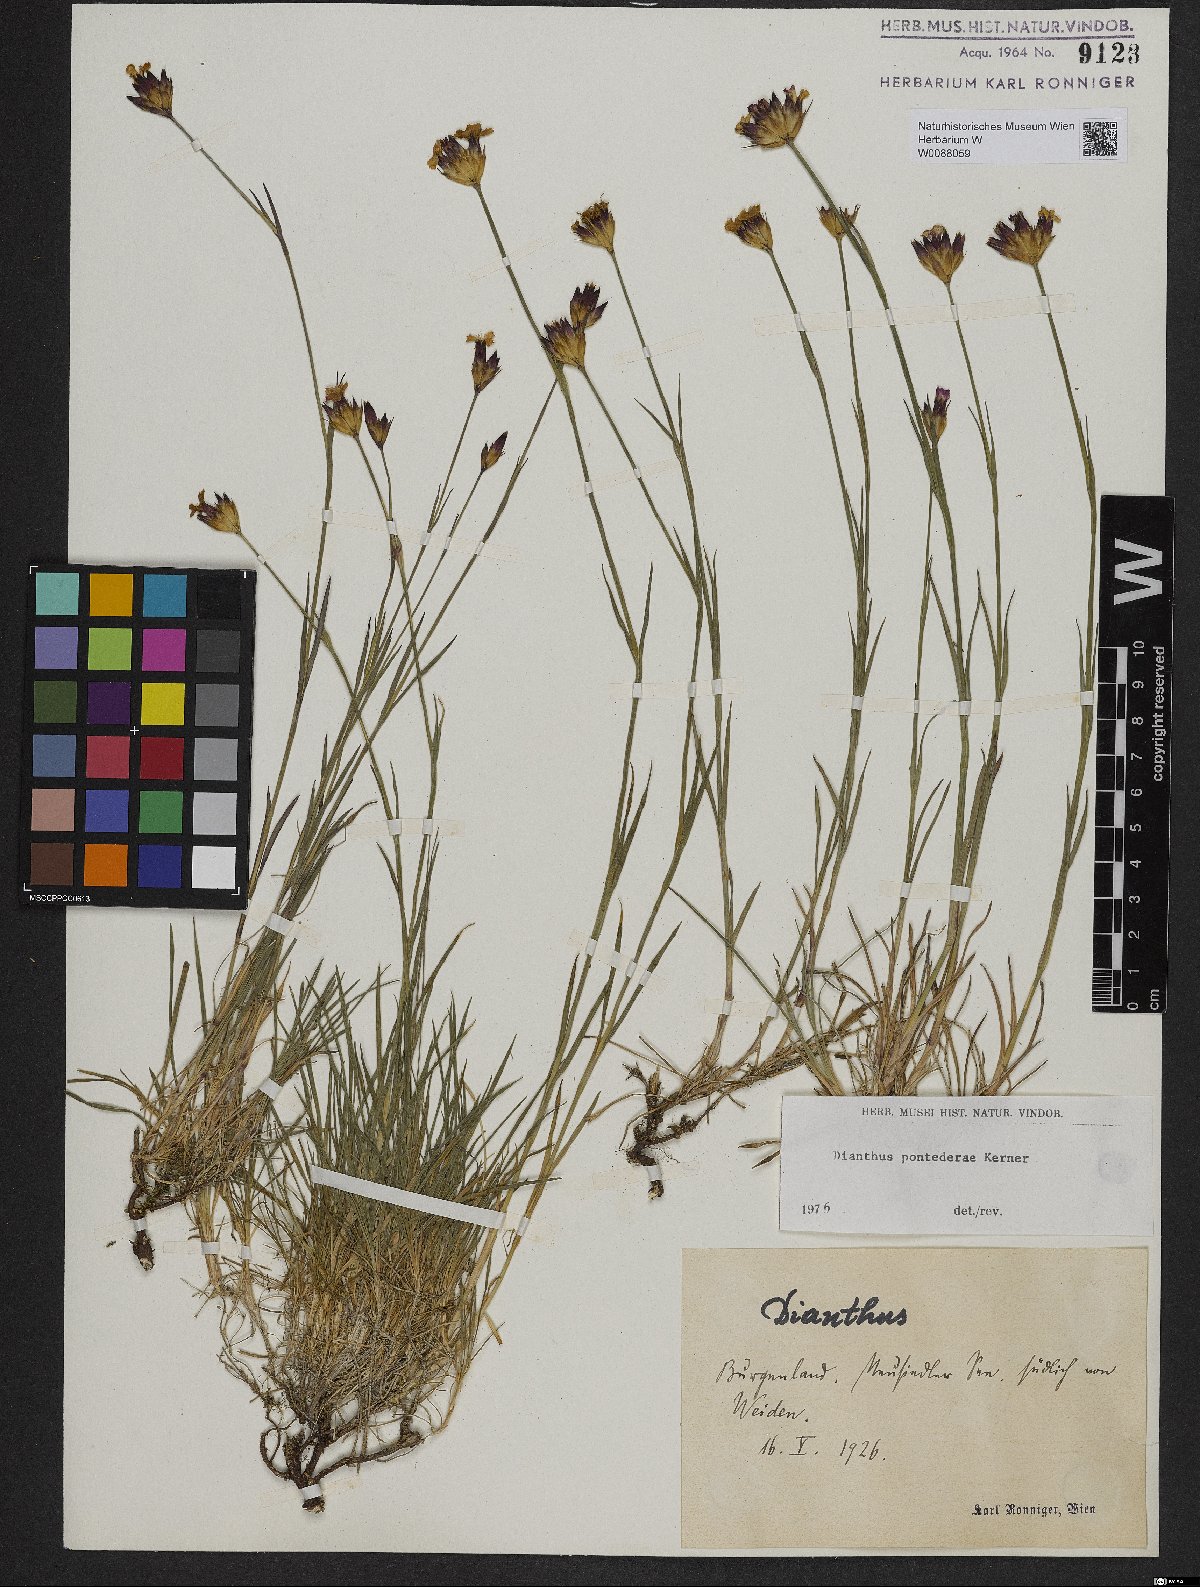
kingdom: Plantae
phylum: Tracheophyta
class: Magnoliopsida
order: Caryophyllales
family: Caryophyllaceae
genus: Dianthus
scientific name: Dianthus pontederae
